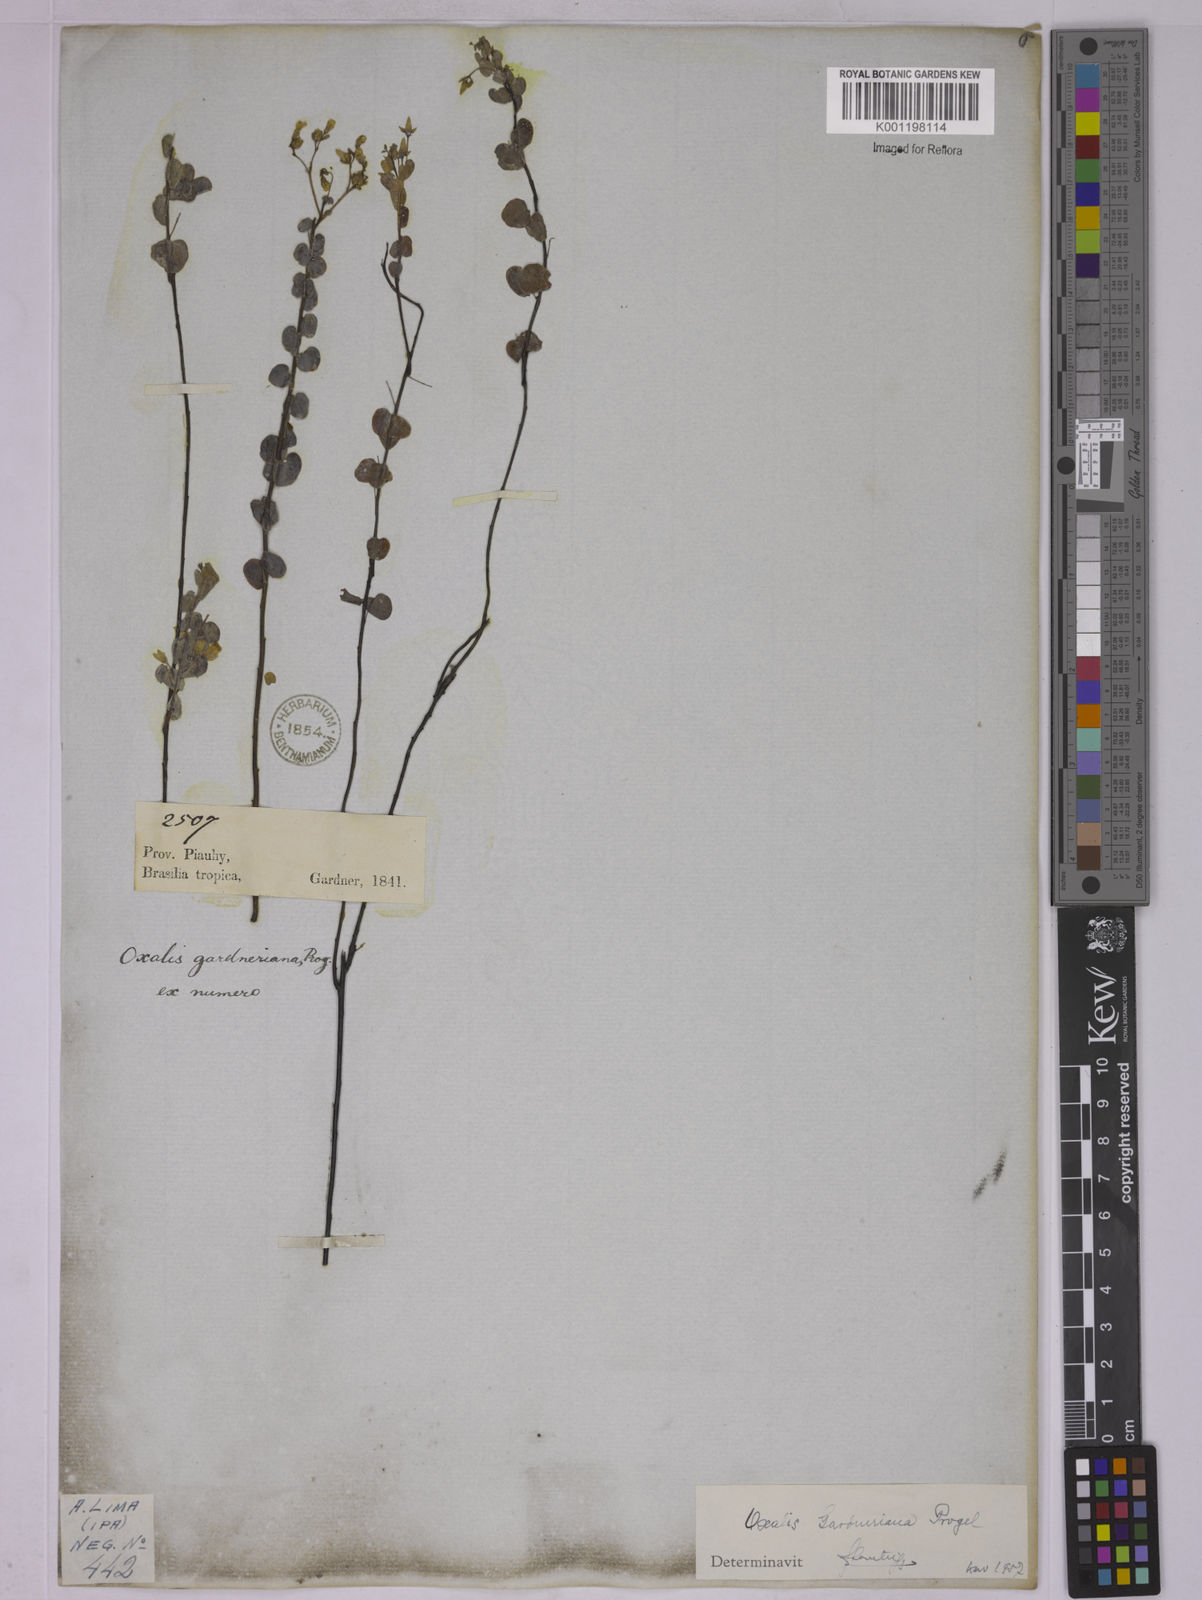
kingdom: Plantae
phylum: Tracheophyta
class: Magnoliopsida
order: Oxalidales
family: Oxalidaceae
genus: Oxalis
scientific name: Oxalis gardneriana
